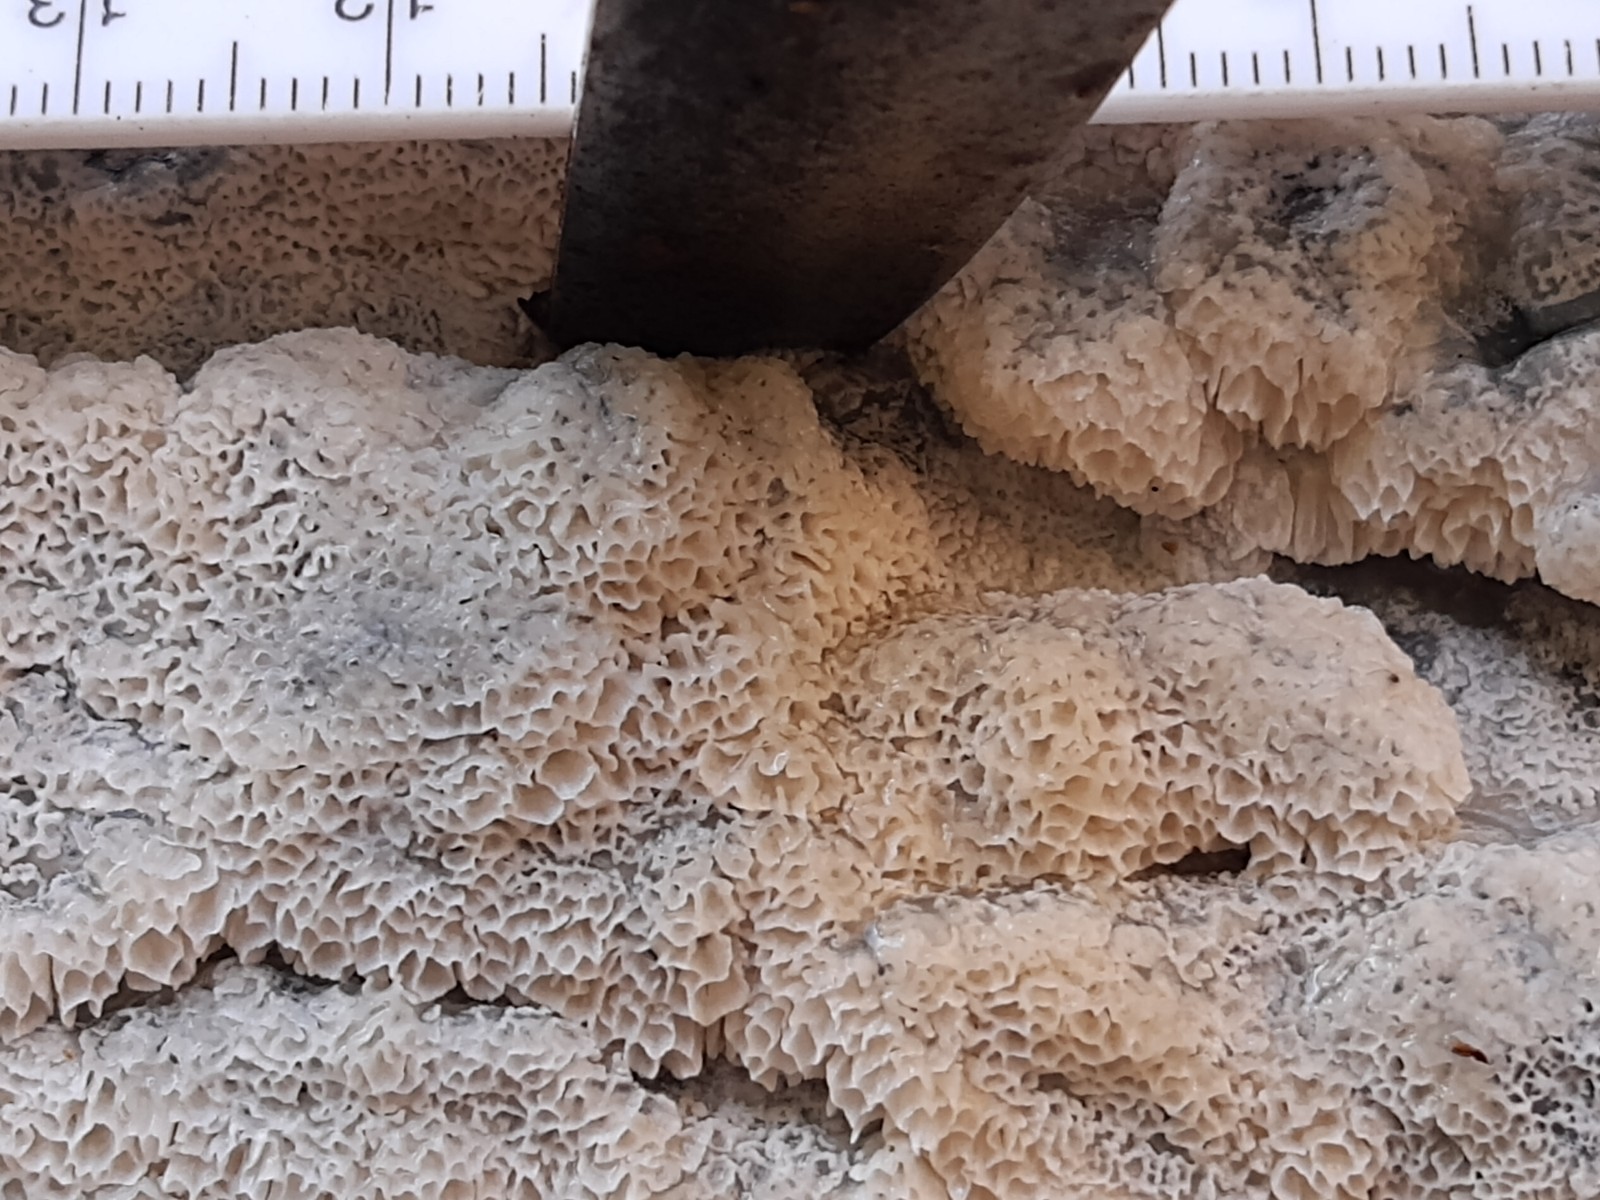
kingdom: Fungi
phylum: Basidiomycota
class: Agaricomycetes
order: Polyporales
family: Cerrenaceae
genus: Raduliporus
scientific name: Raduliporus aneirinus
